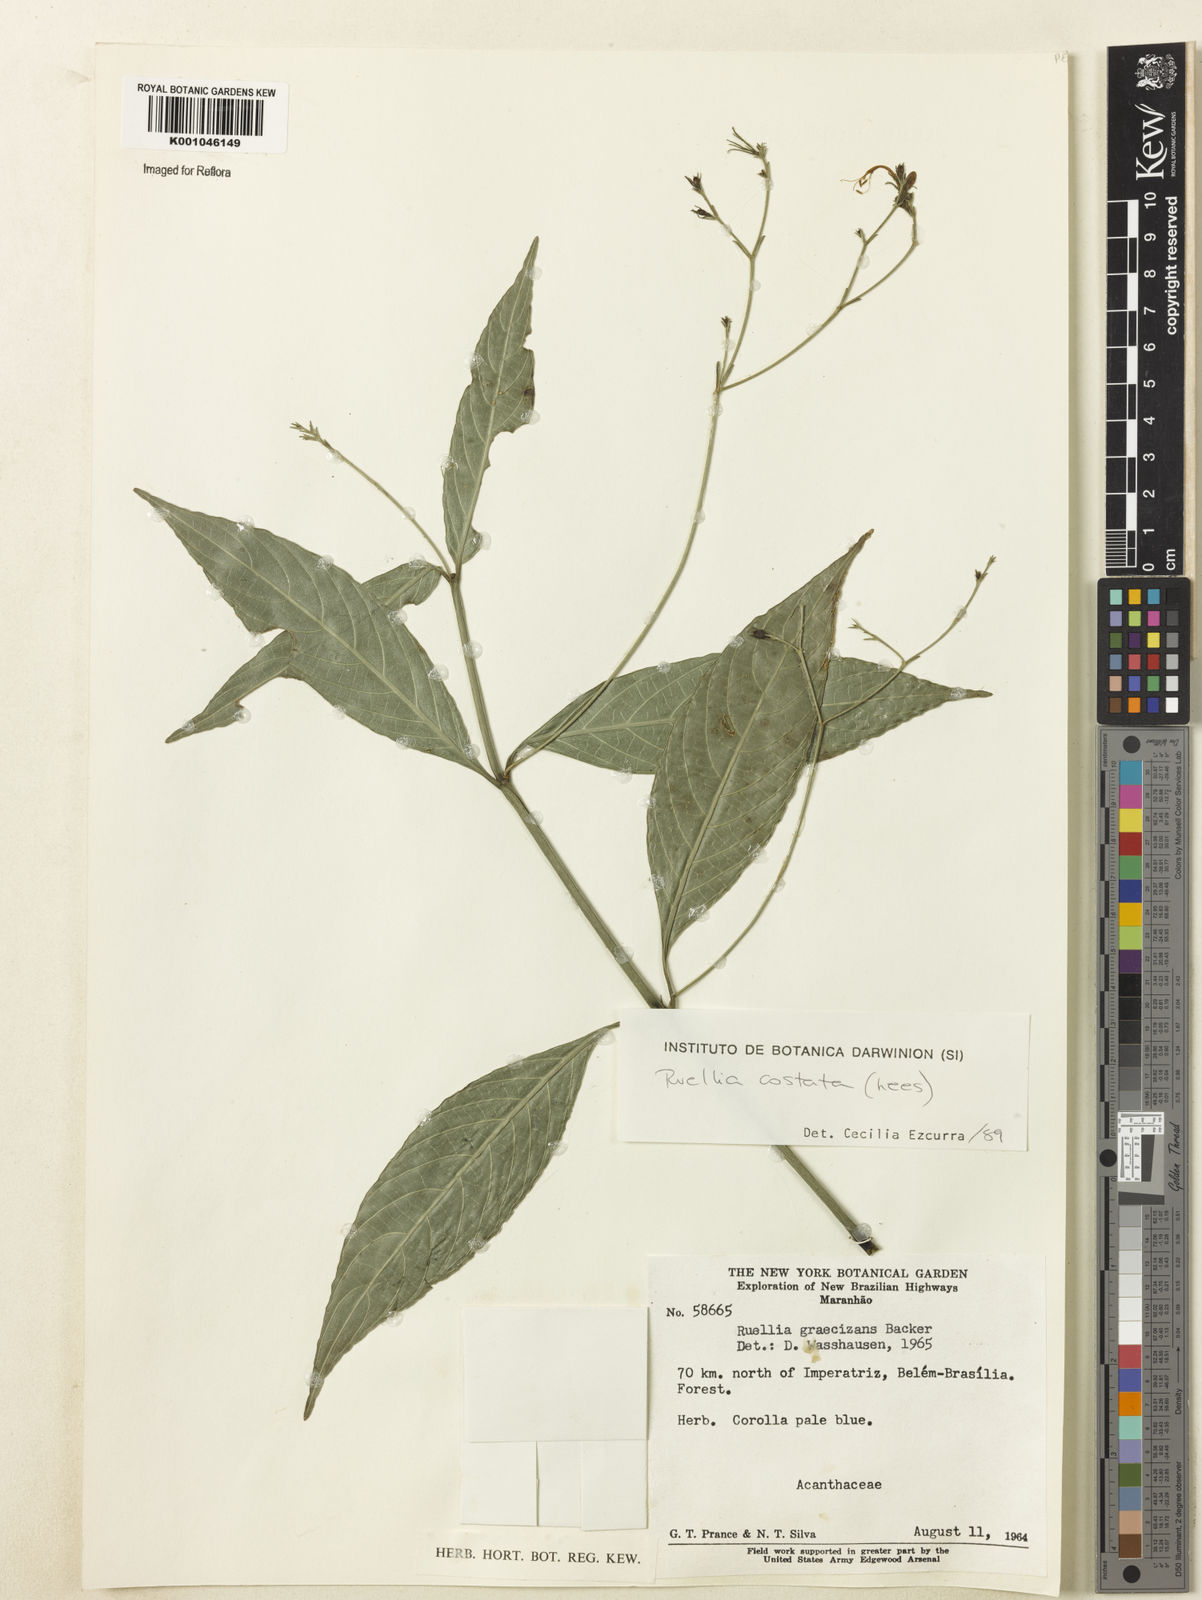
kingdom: Plantae
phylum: Tracheophyta
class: Magnoliopsida
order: Lamiales
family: Acanthaceae
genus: Ruellia
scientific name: Ruellia costata
